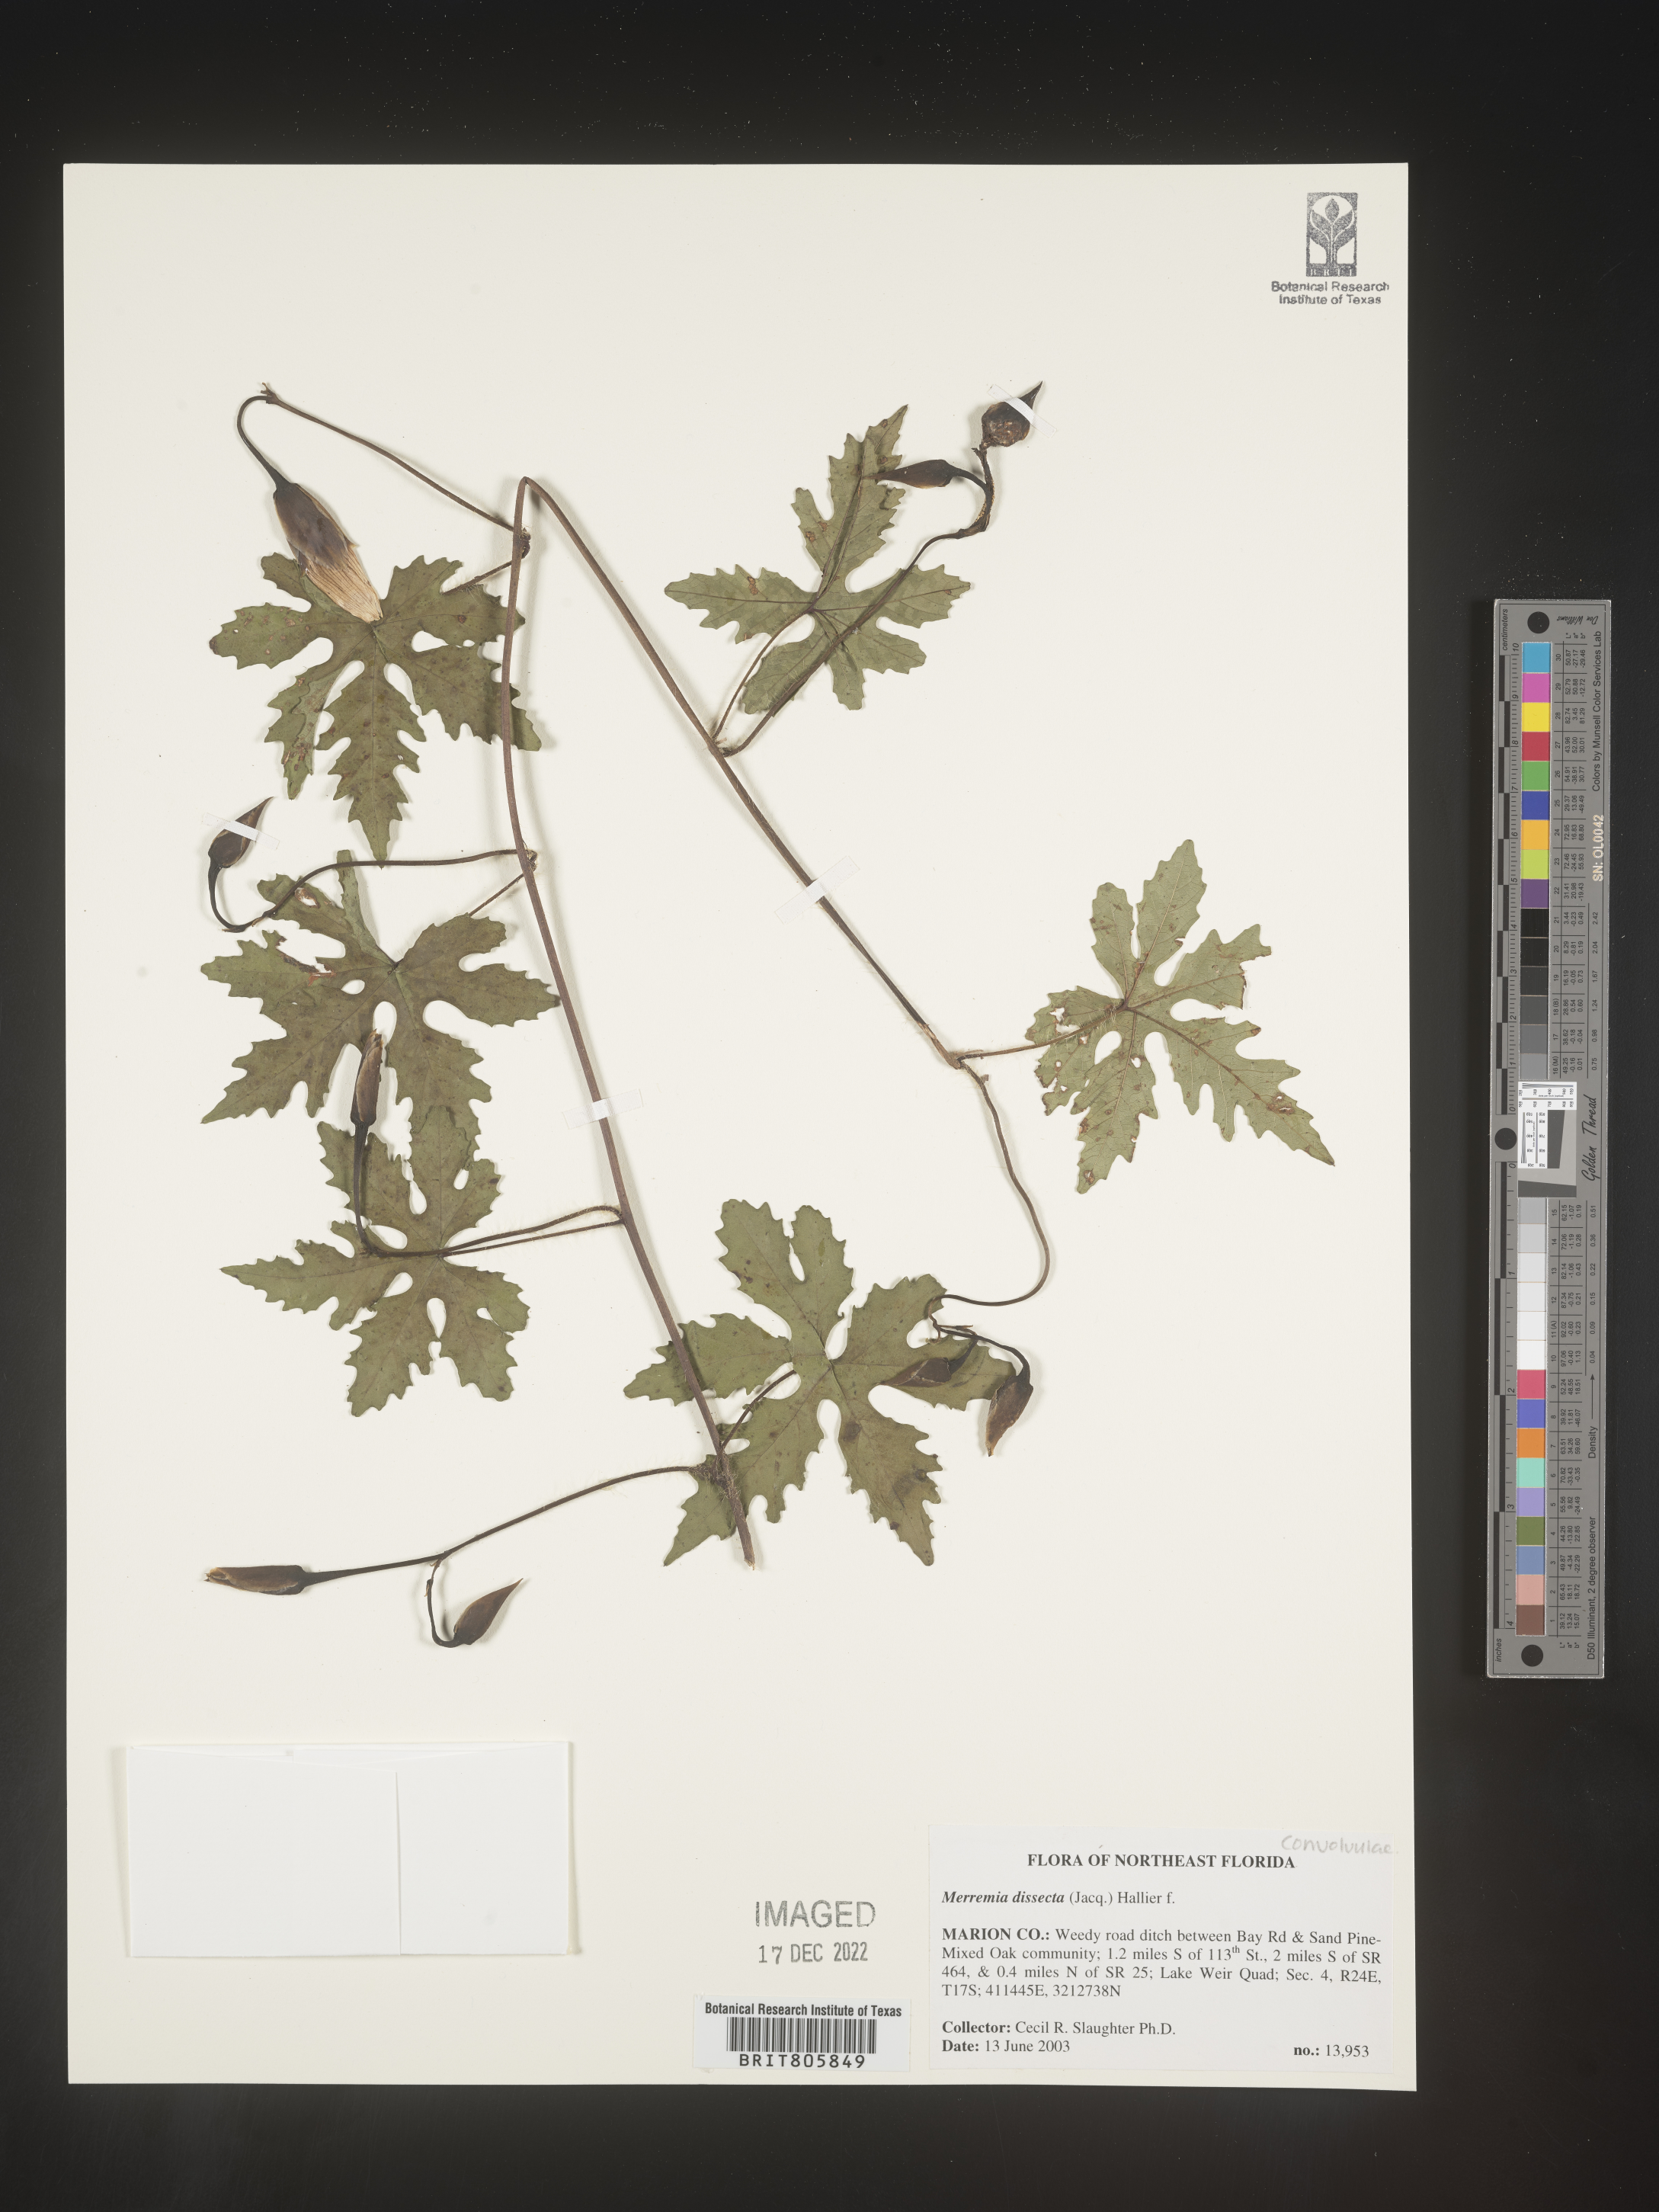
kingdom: Plantae
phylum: Tracheophyta
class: Magnoliopsida
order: Solanales
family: Convolvulaceae
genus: Merremia
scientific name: Merremia
